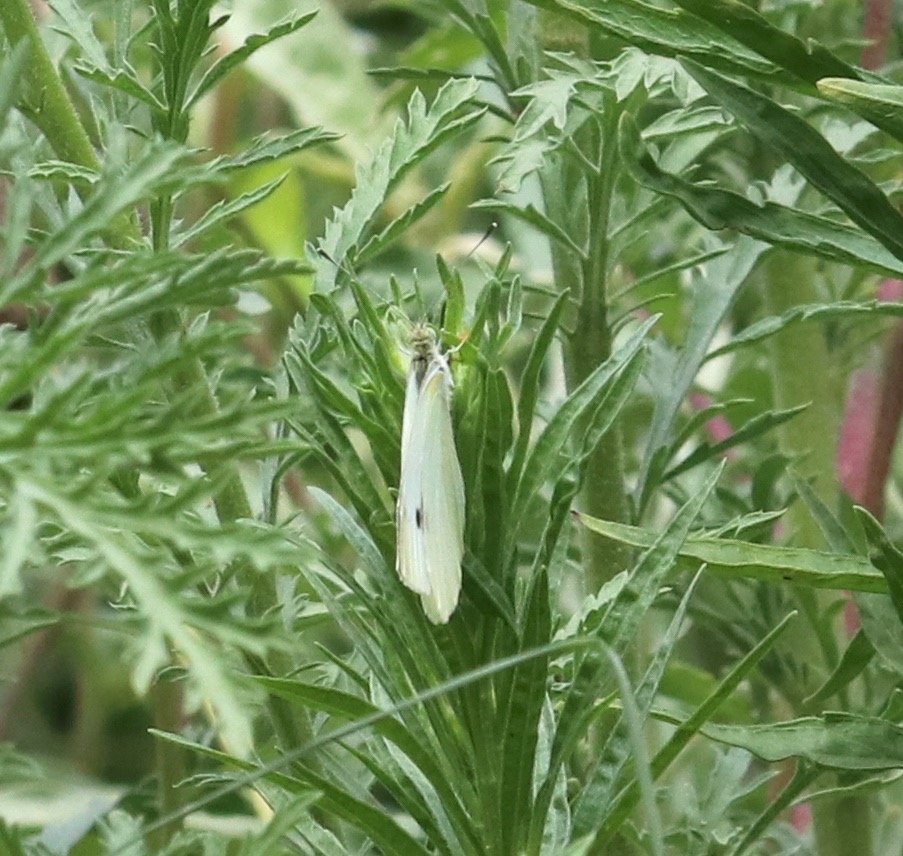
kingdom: Animalia
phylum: Arthropoda
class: Insecta
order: Lepidoptera
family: Pieridae
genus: Pieris
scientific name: Pieris rapae
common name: Cabbage White
